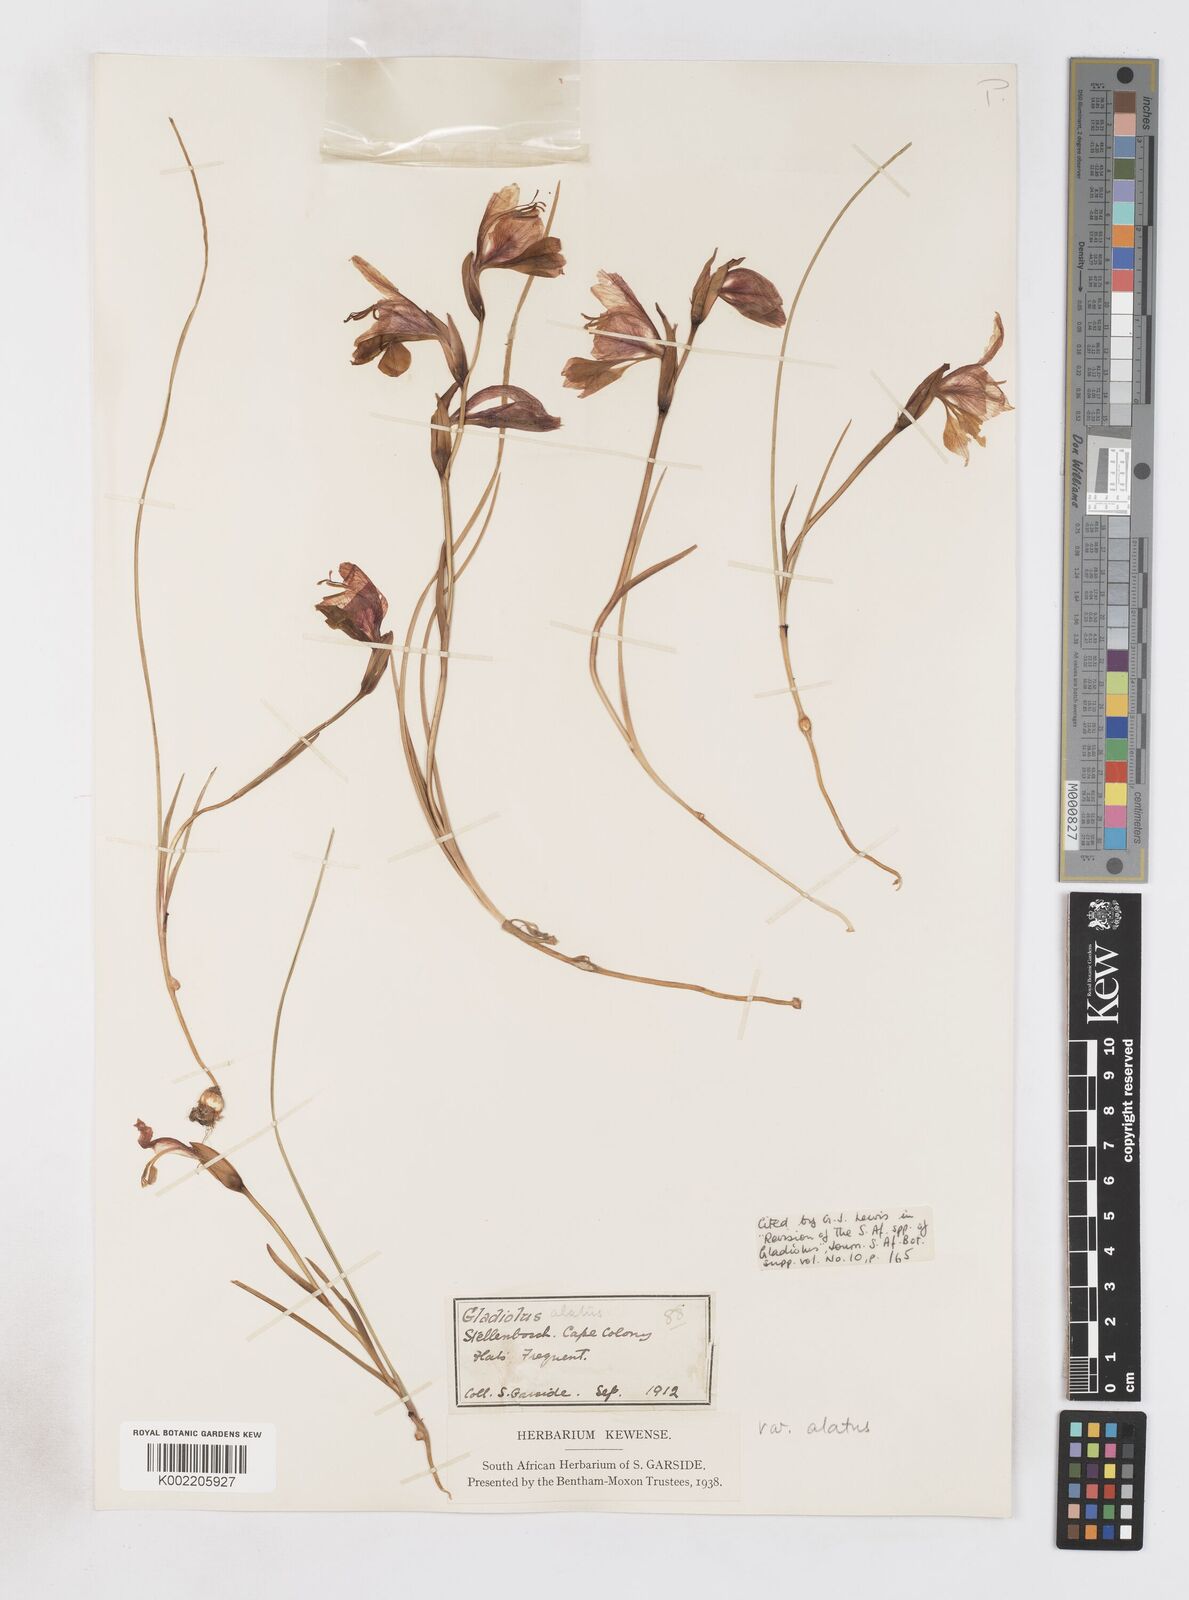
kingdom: Plantae
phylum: Tracheophyta
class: Liliopsida
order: Asparagales
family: Iridaceae
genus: Gladiolus
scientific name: Gladiolus alatus
